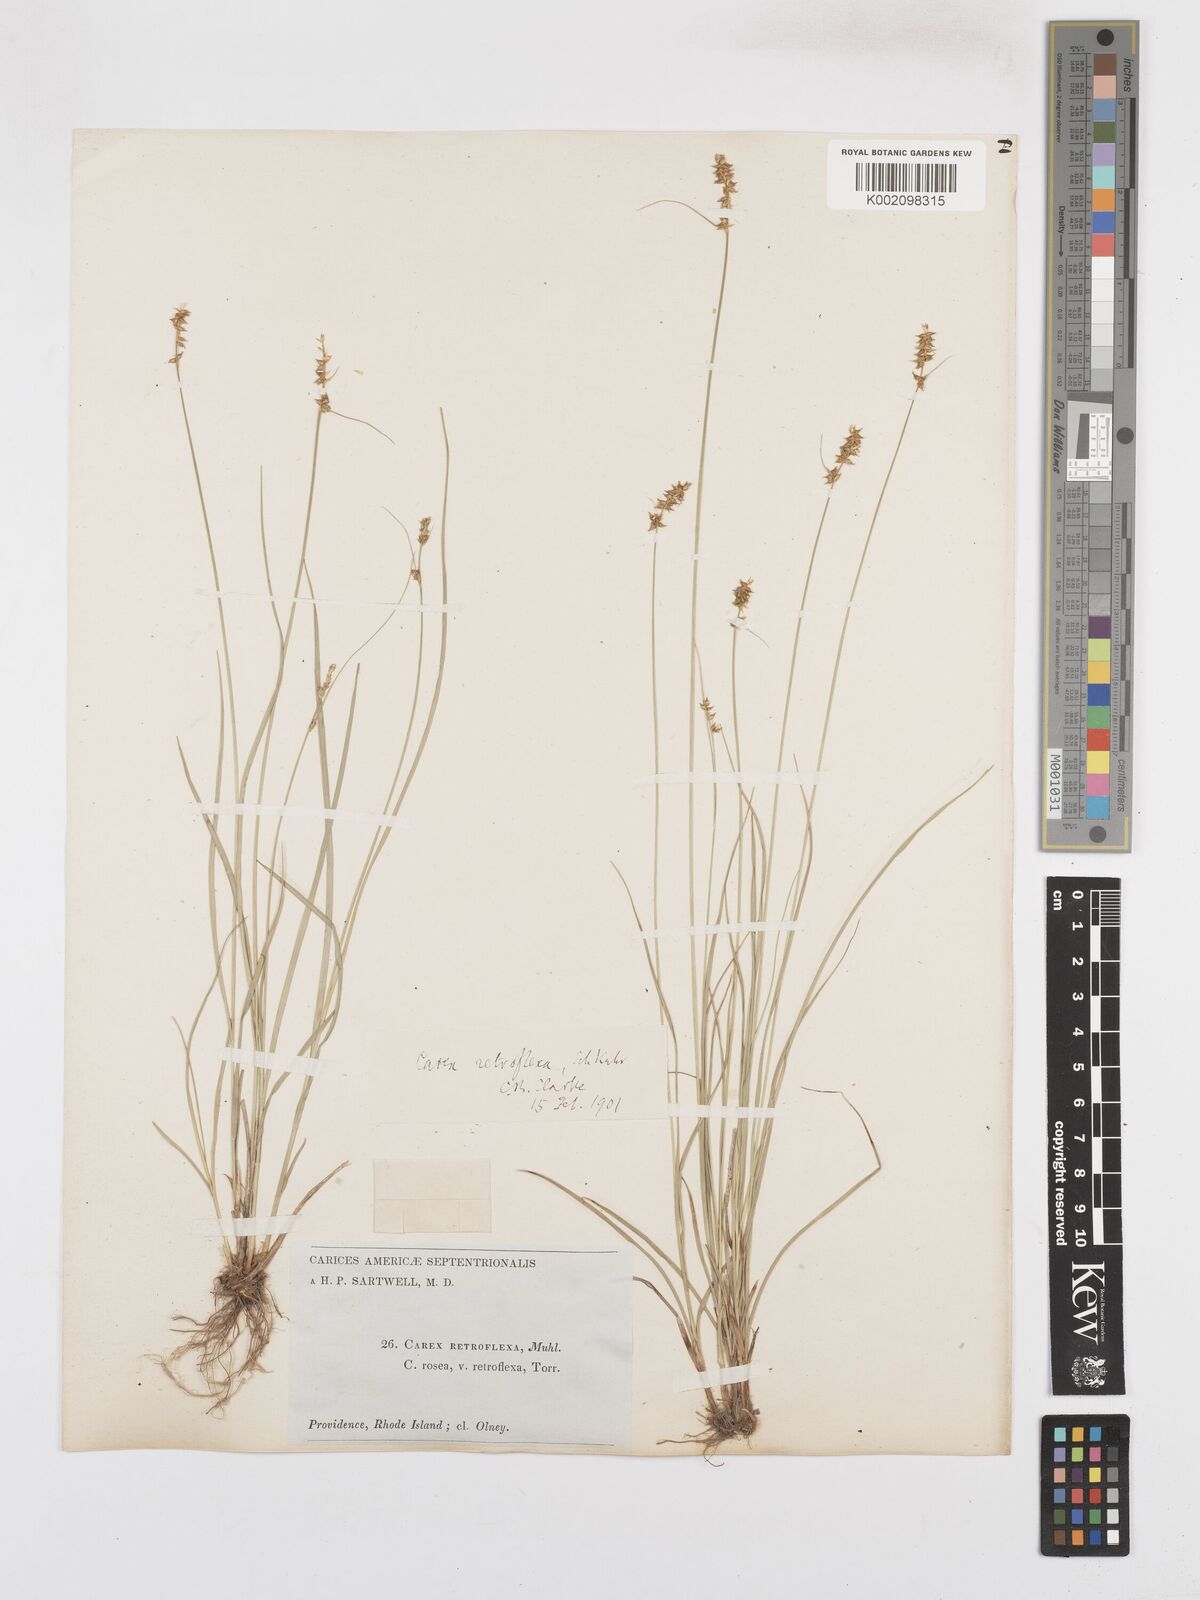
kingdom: Plantae
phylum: Tracheophyta
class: Liliopsida
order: Poales
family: Cyperaceae
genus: Carex
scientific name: Carex retroflexa
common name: Reflexed sedge
